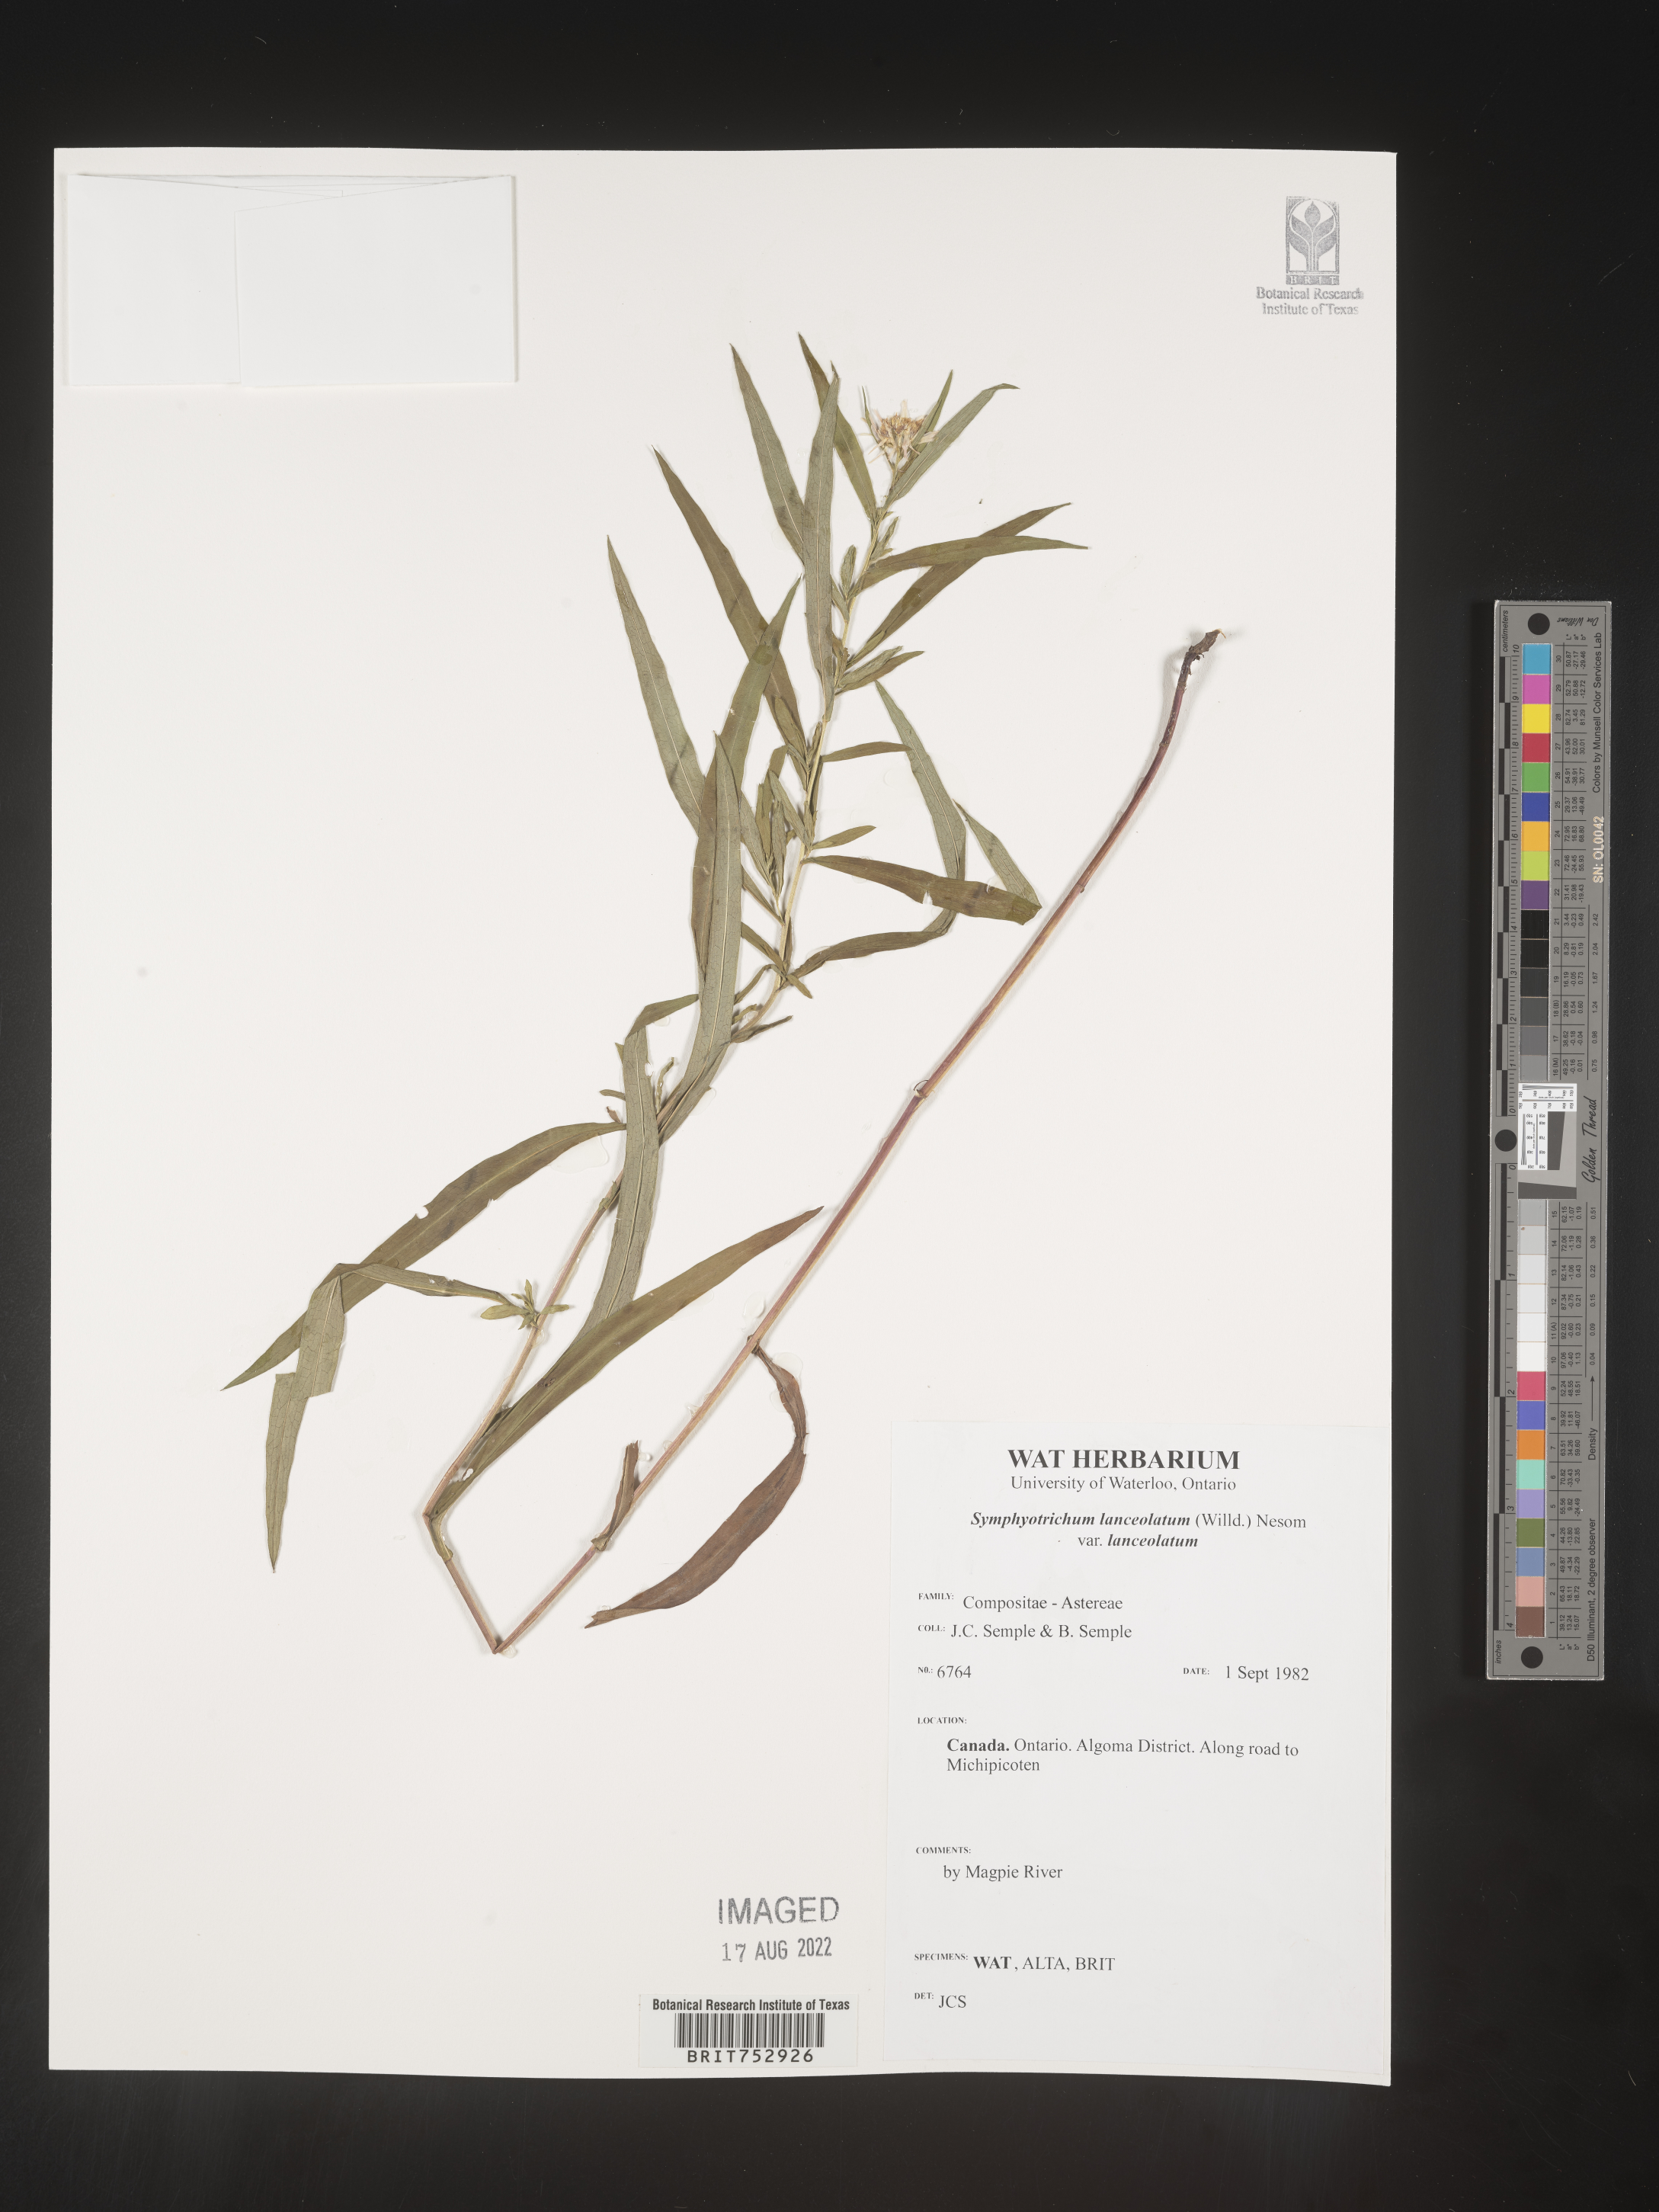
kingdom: Plantae
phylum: Tracheophyta
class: Magnoliopsida
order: Asterales
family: Asteraceae
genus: Symphyotrichum
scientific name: Symphyotrichum lanceolatum
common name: Panicled aster
